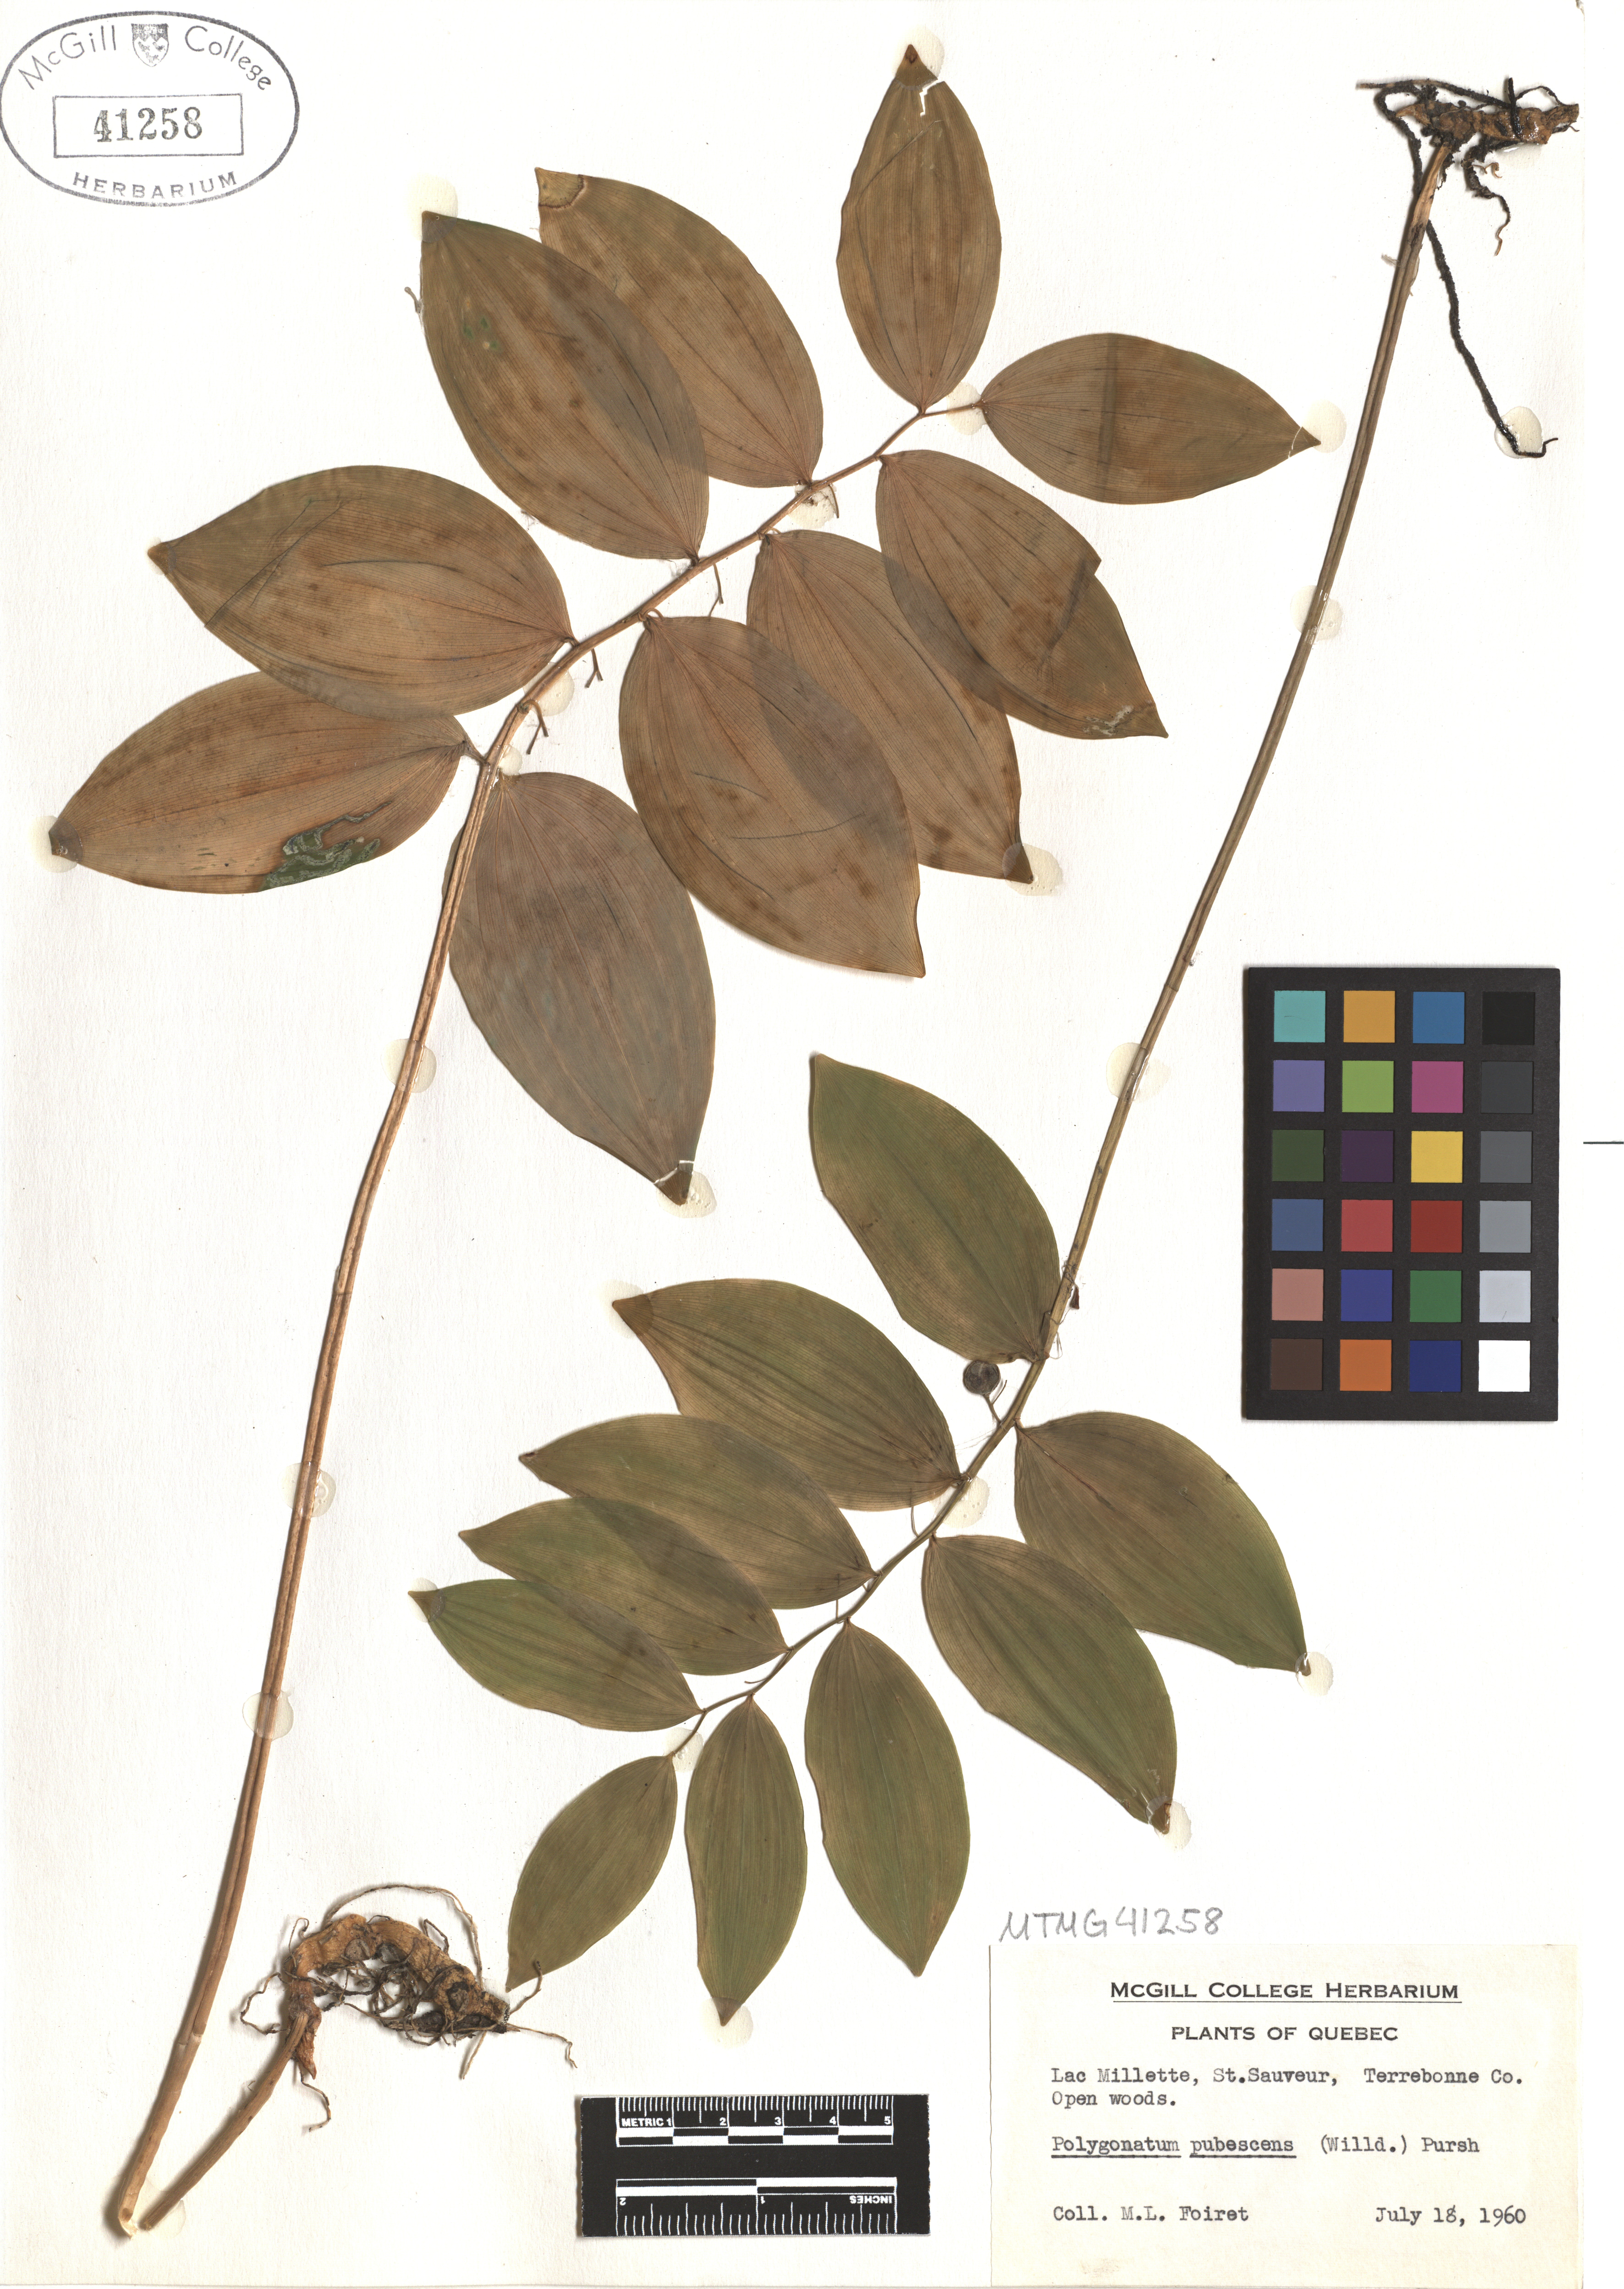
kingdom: Plantae
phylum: Tracheophyta
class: Liliopsida
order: Asparagales
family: Asparagaceae
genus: Polygonatum
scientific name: Polygonatum pubescens
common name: Downy solomon's seal
